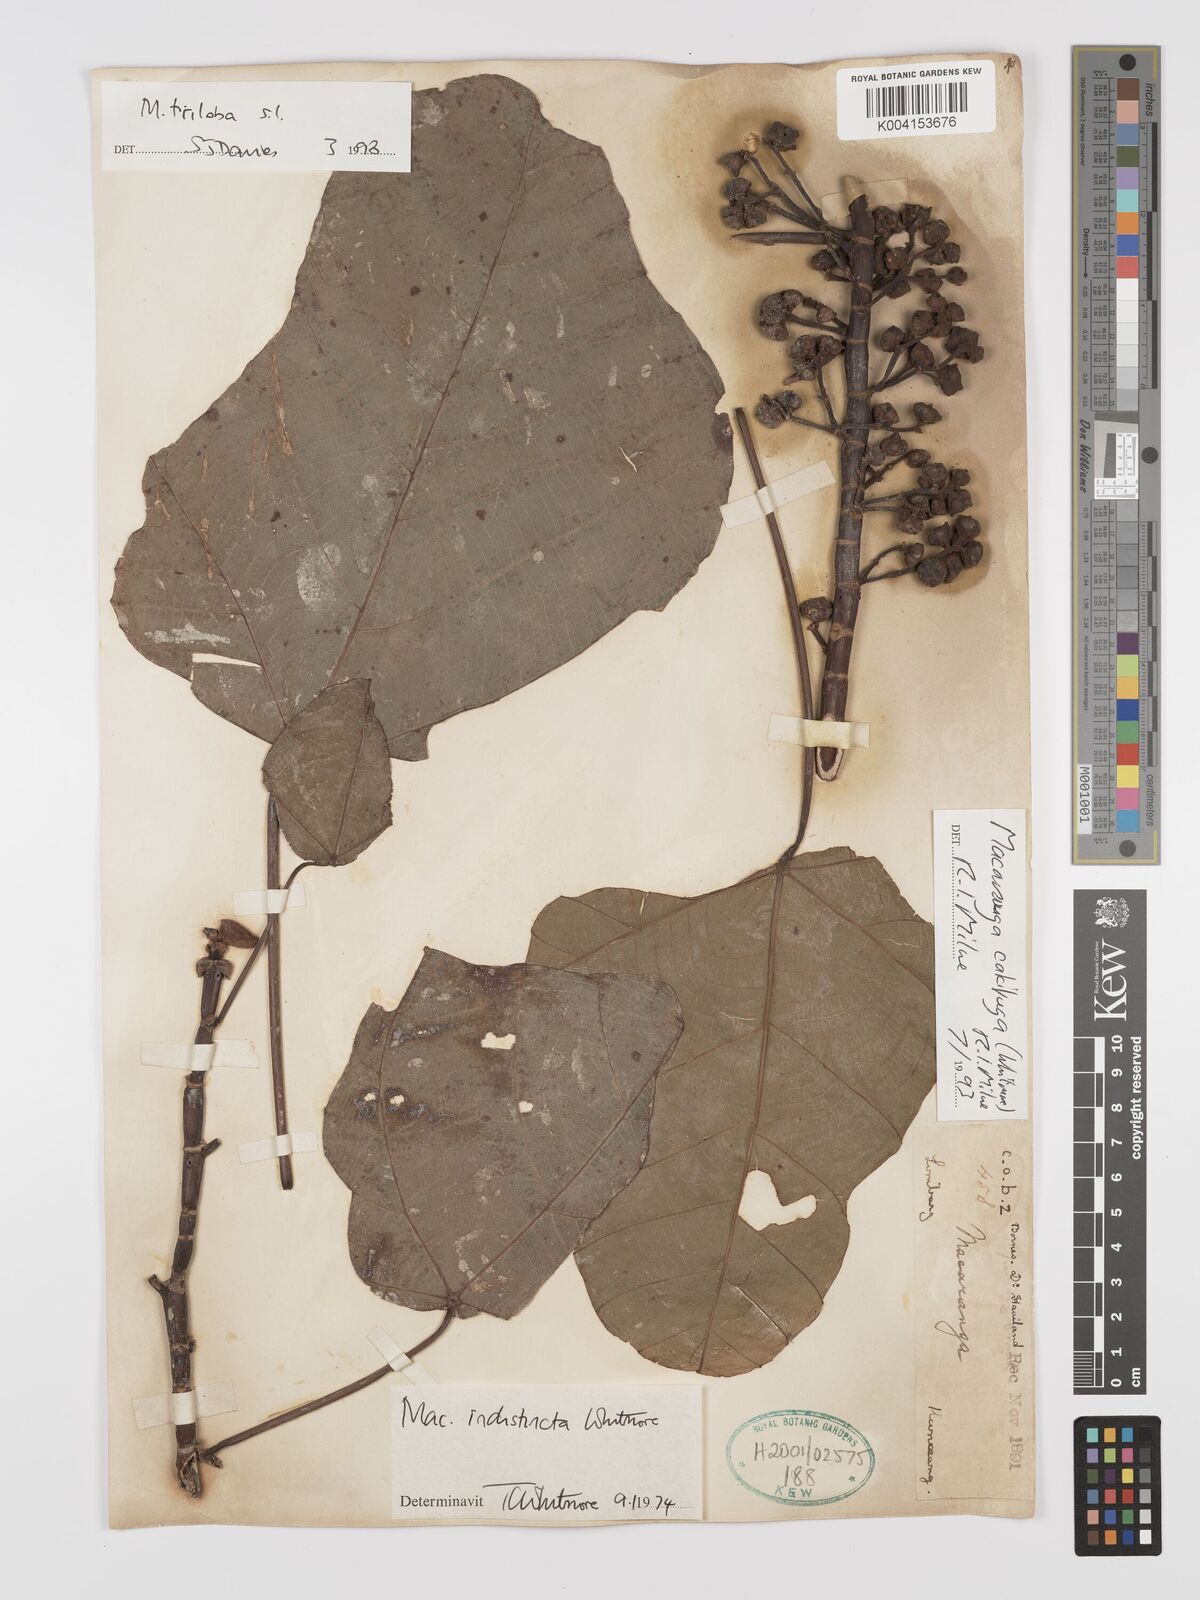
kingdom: Plantae
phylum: Tracheophyta
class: Magnoliopsida
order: Malpighiales
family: Euphorbiaceae
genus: Macaranga
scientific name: Macaranga triloba
